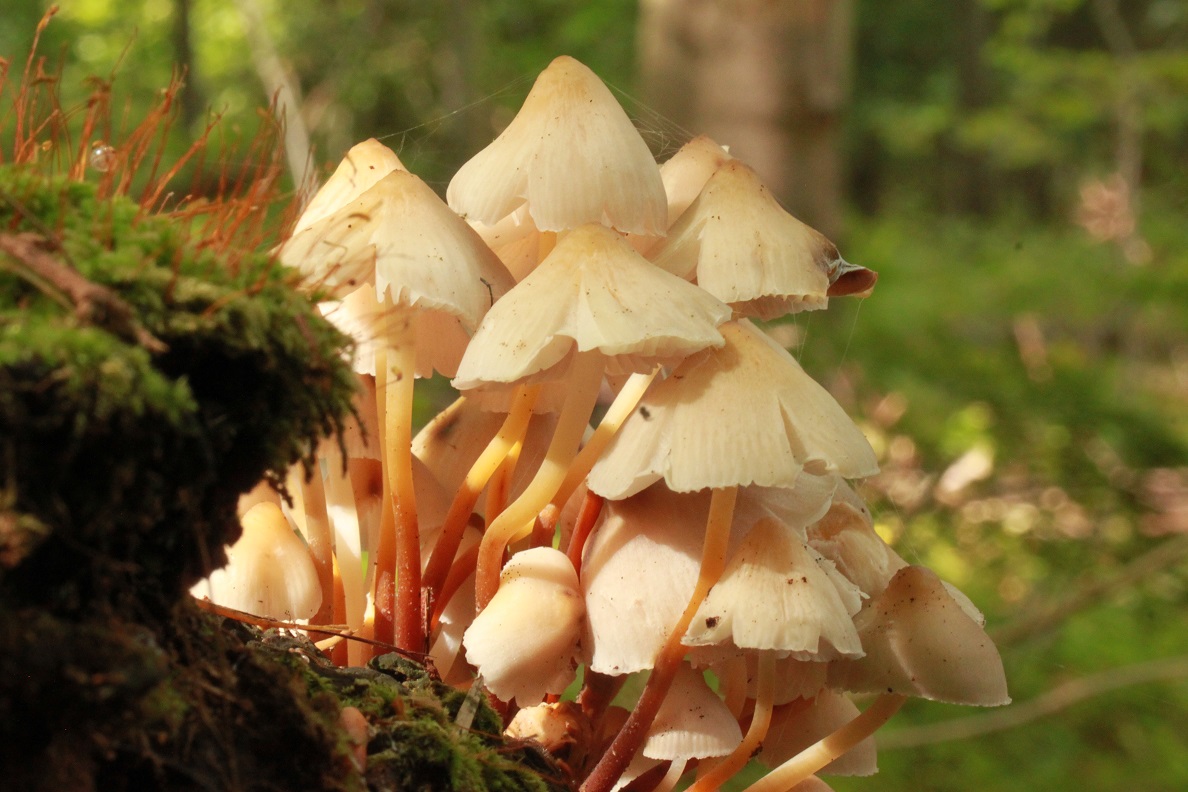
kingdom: Fungi
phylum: Basidiomycota
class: Agaricomycetes
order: Agaricales
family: Mycenaceae
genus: Mycena
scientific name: Mycena inclinata
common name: nikkende huesvamp
